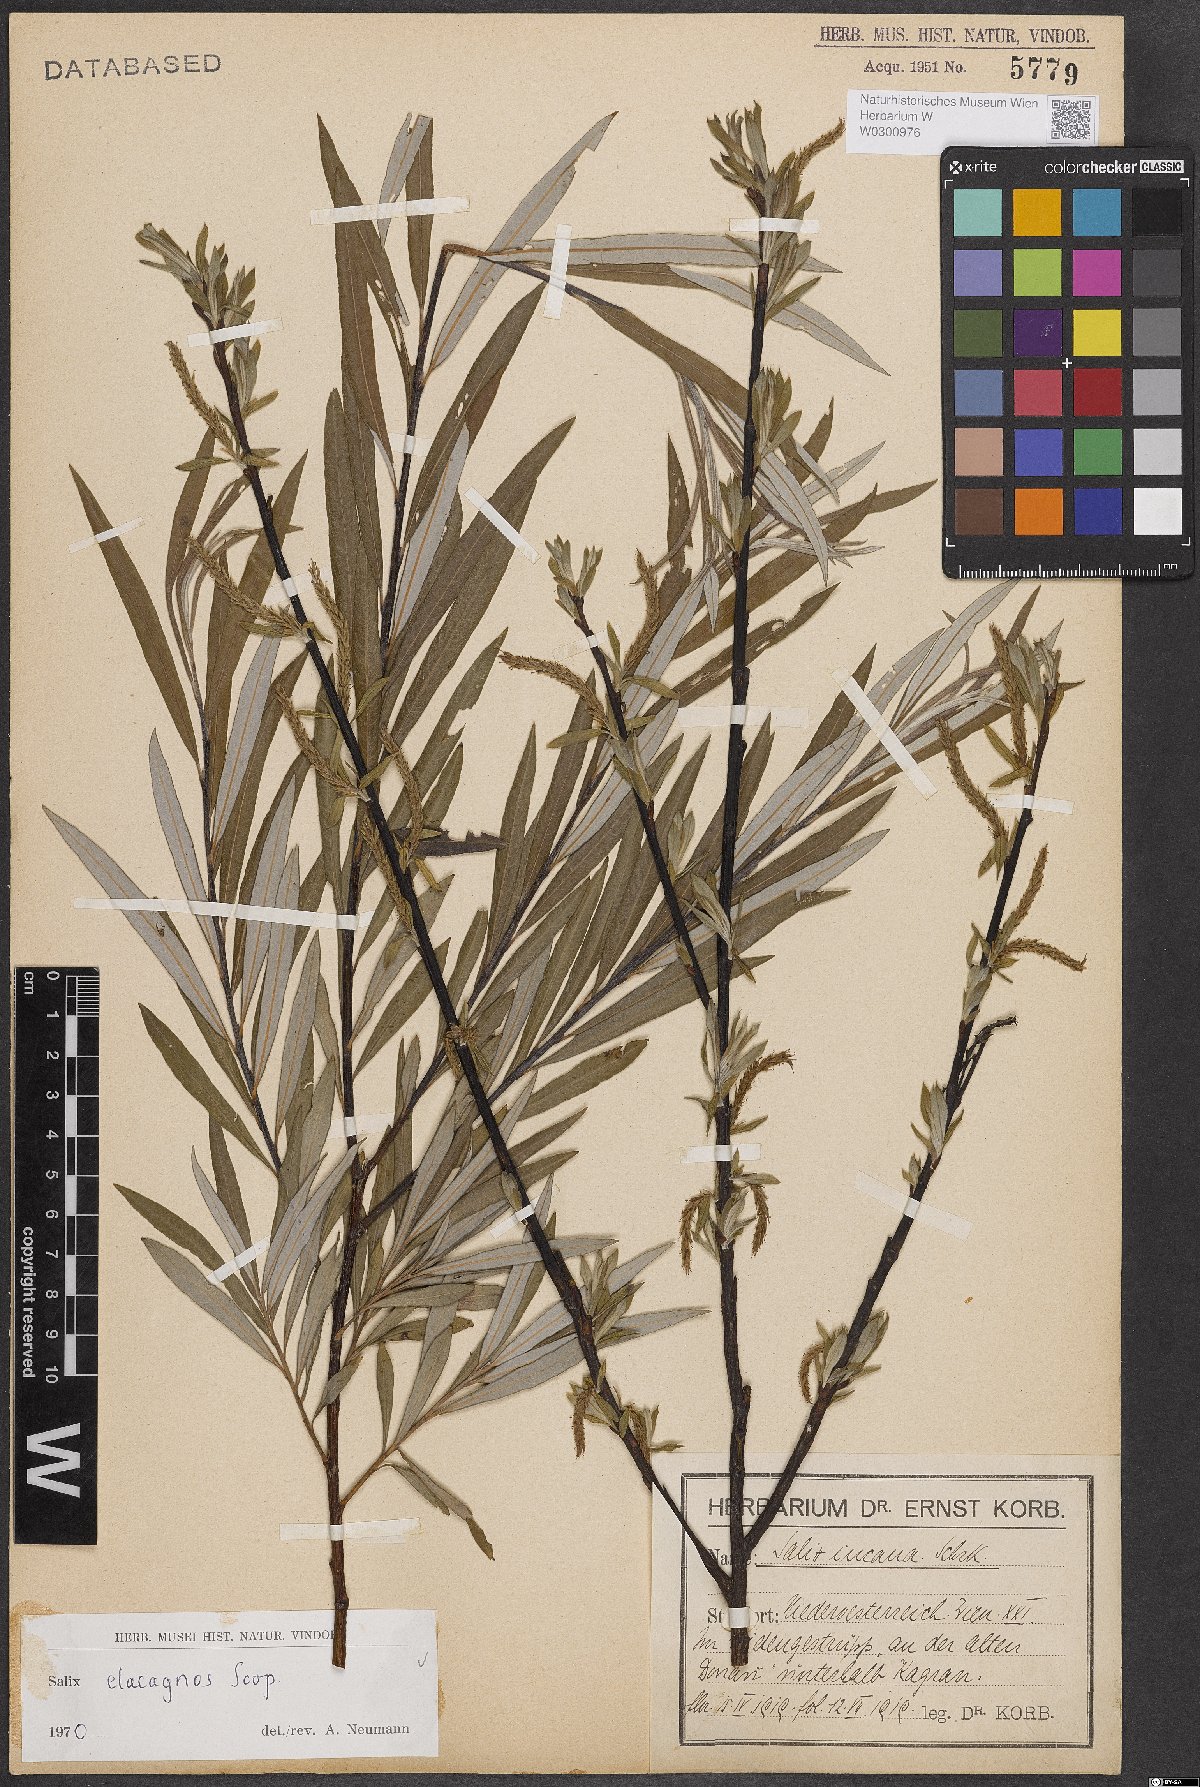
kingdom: Plantae
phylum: Tracheophyta
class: Magnoliopsida
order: Malpighiales
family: Salicaceae
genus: Salix
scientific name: Salix eleagnos
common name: Elaeagnus willow
